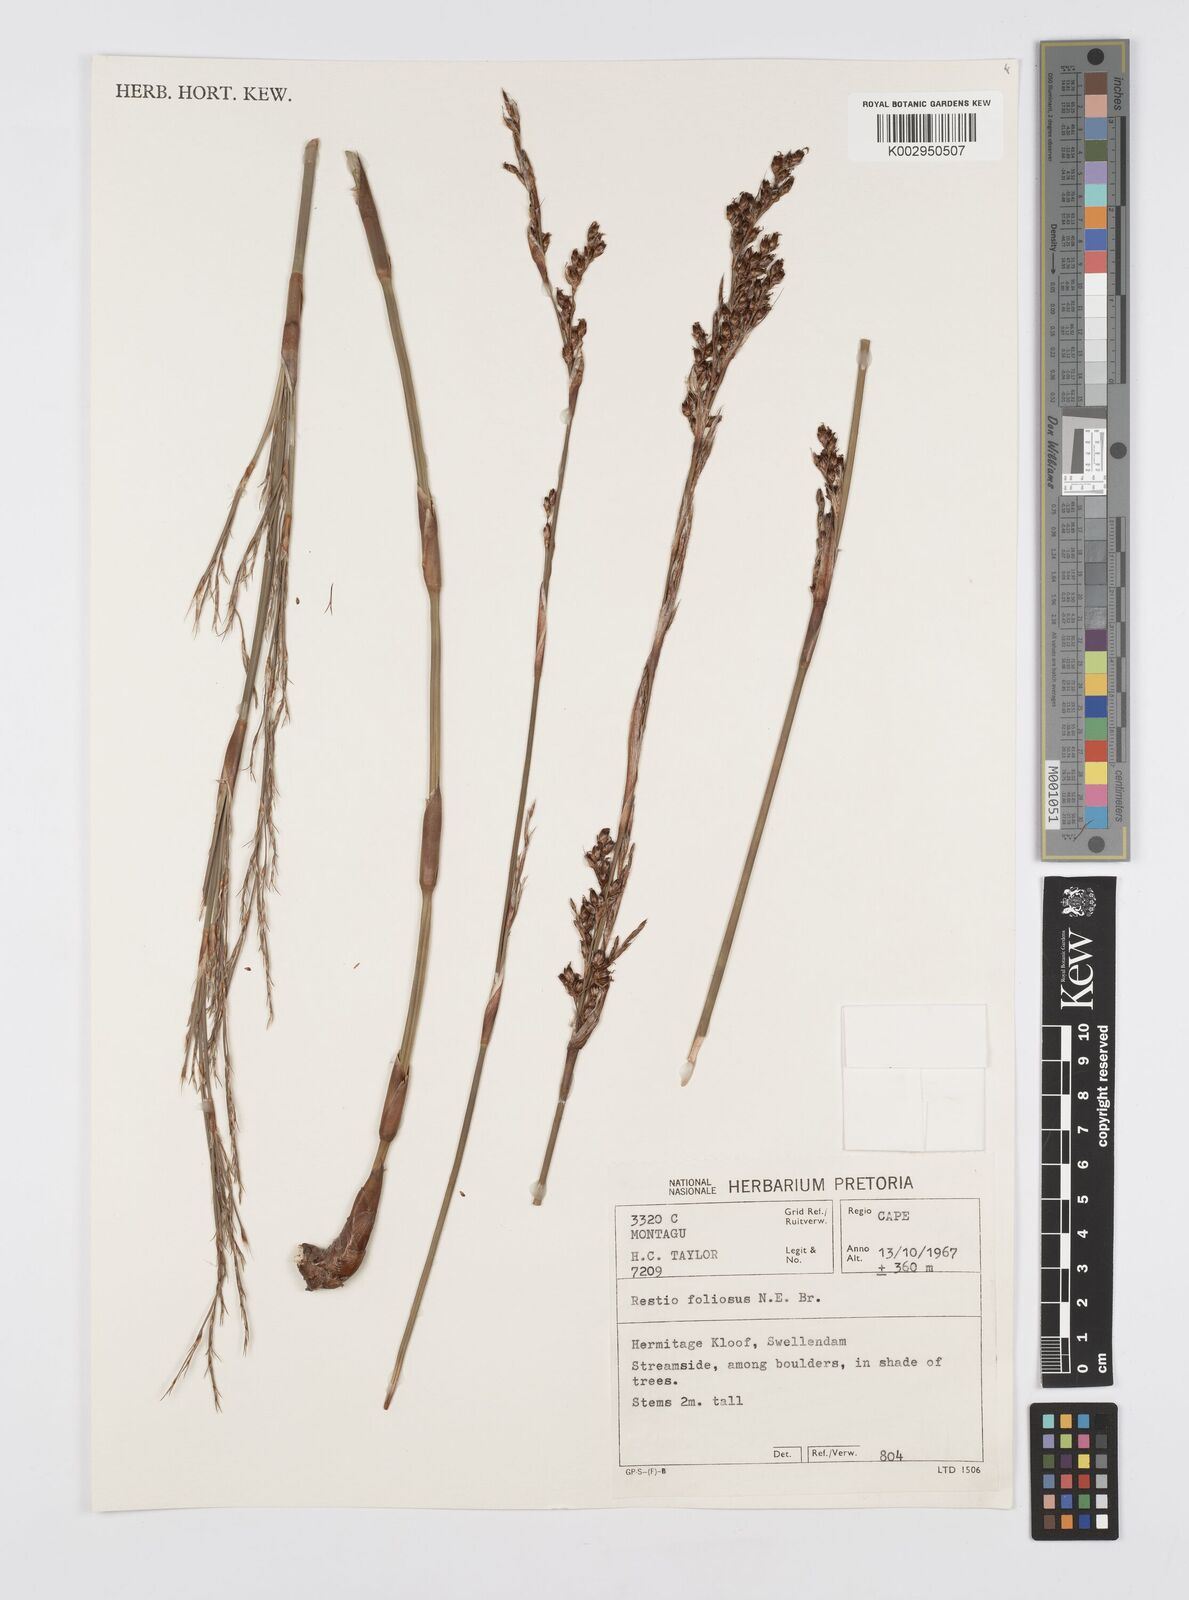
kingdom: Plantae
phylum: Tracheophyta
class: Liliopsida
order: Poales
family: Restionaceae
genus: Rhodocoma
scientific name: Rhodocoma foliosa
